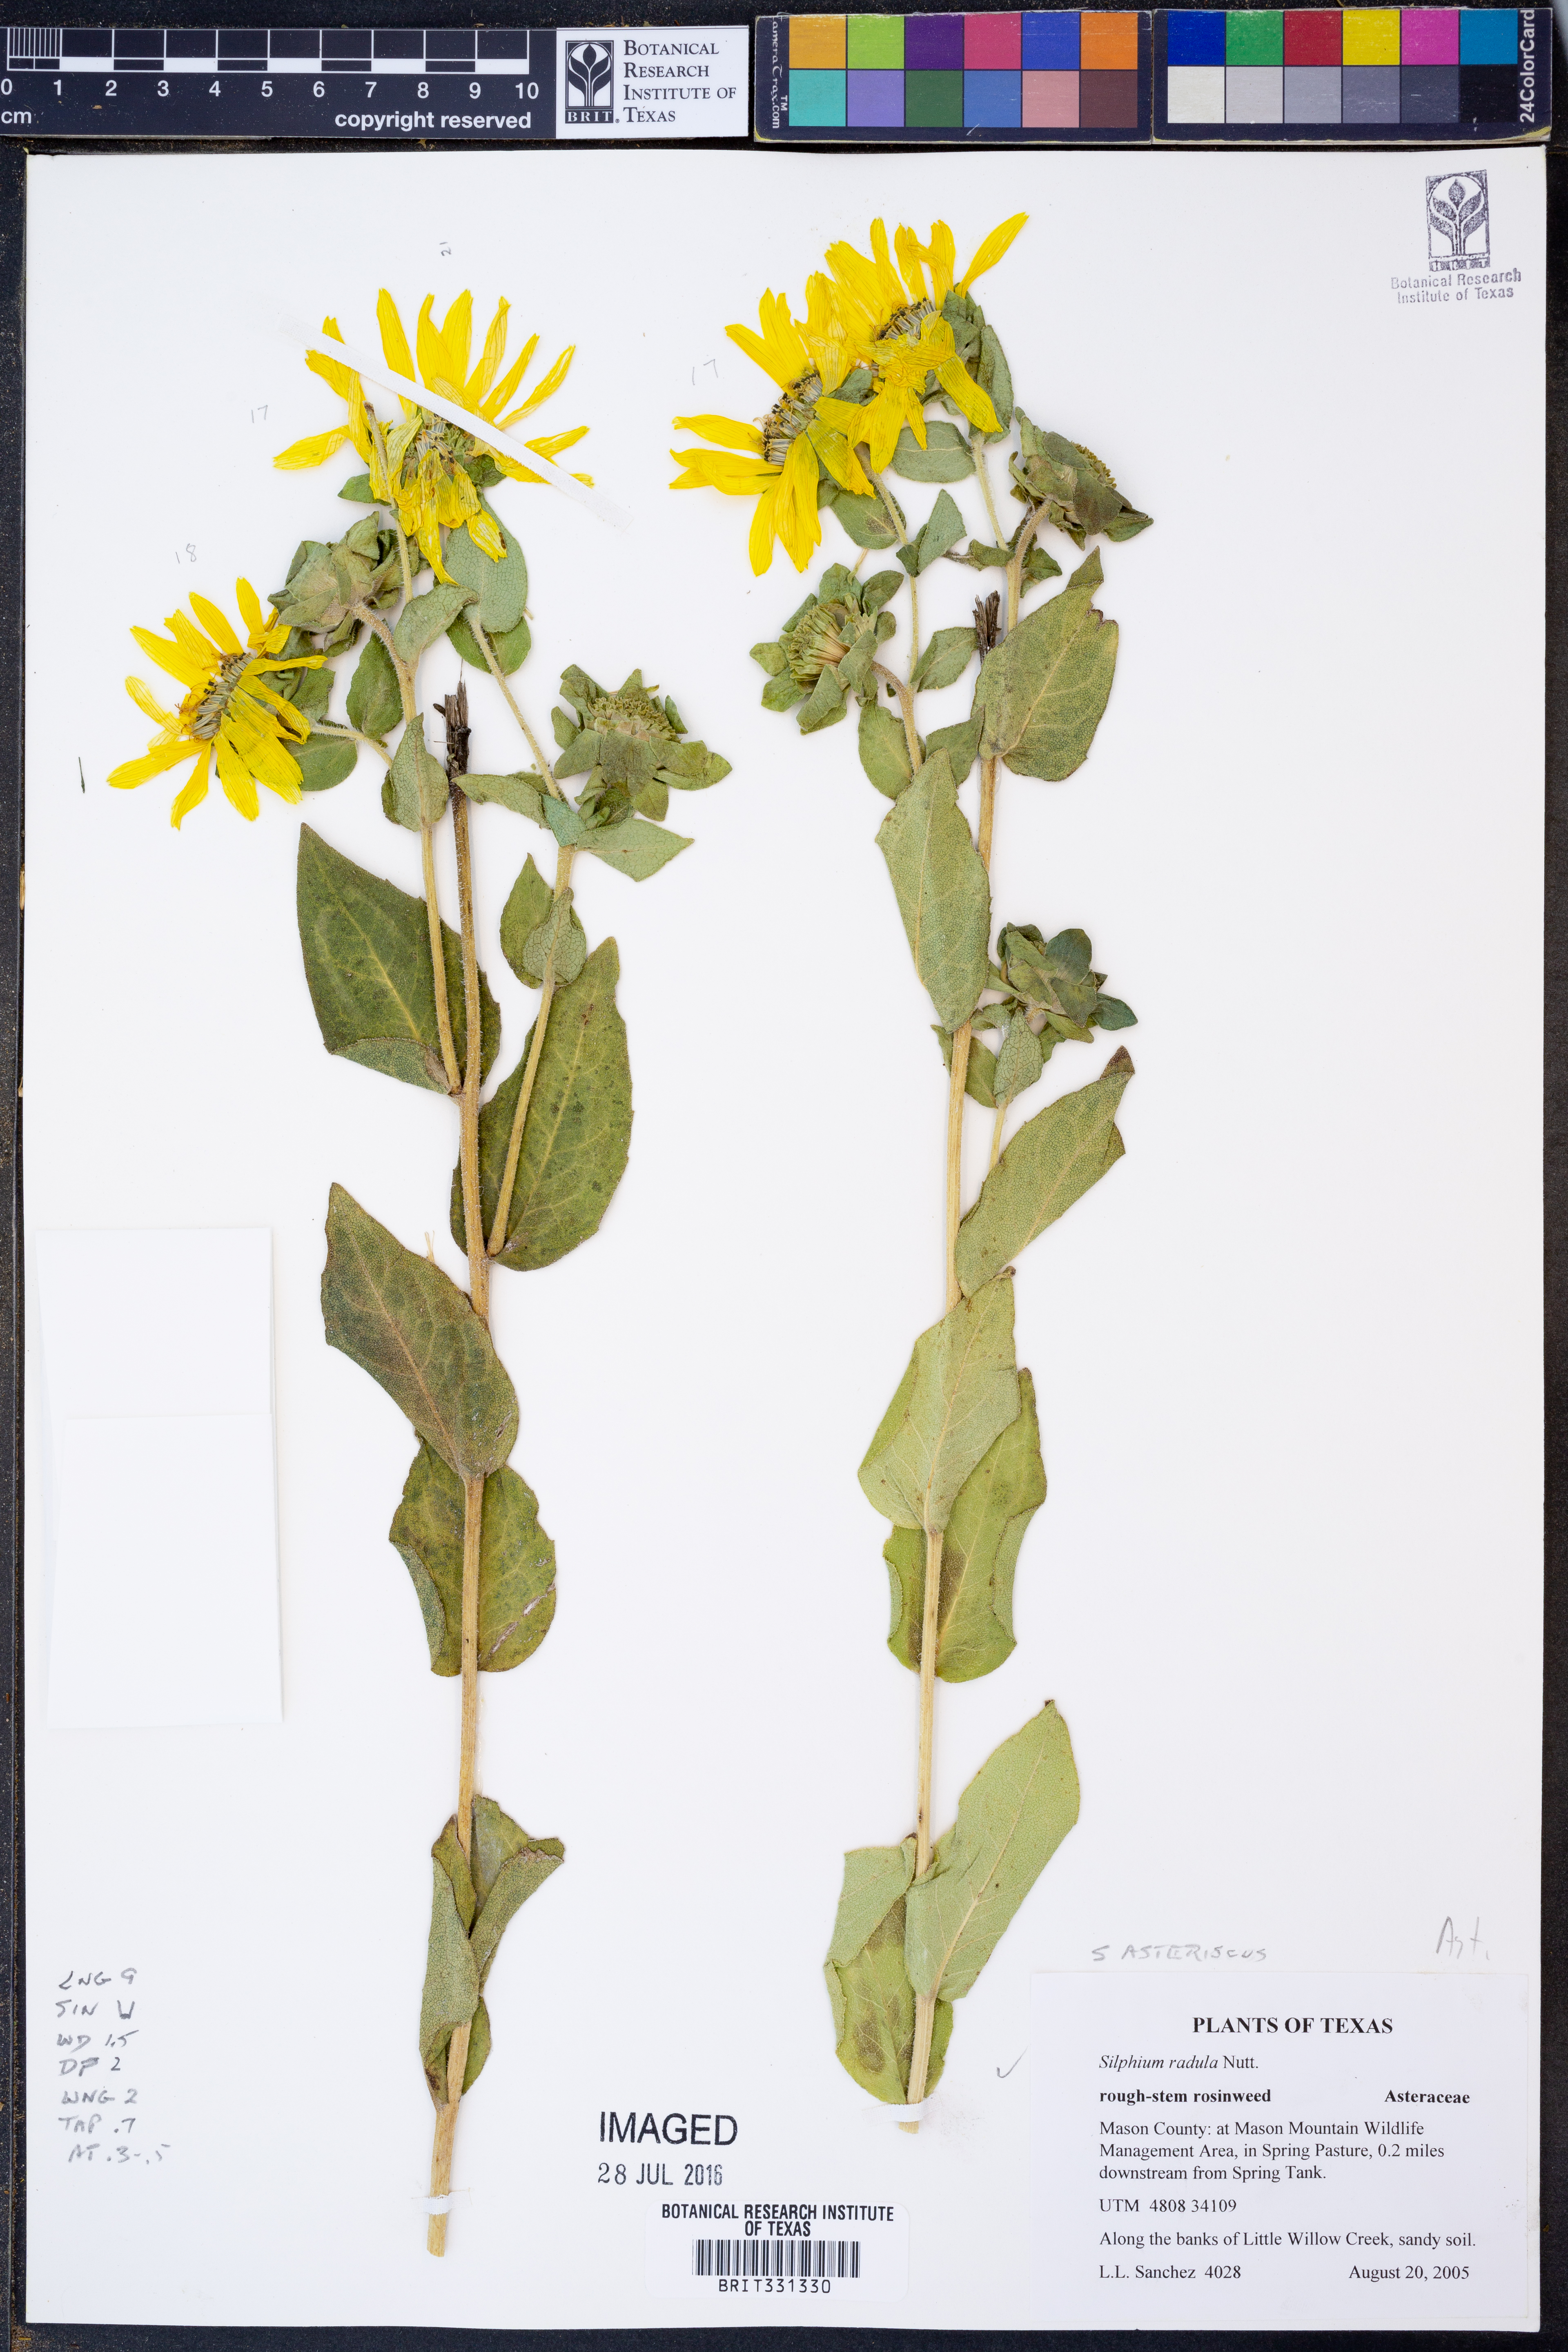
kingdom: Plantae
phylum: Tracheophyta
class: Magnoliopsida
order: Asterales
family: Asteraceae
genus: Silphium
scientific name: Silphium radula
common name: Roughleaf rosinweed
